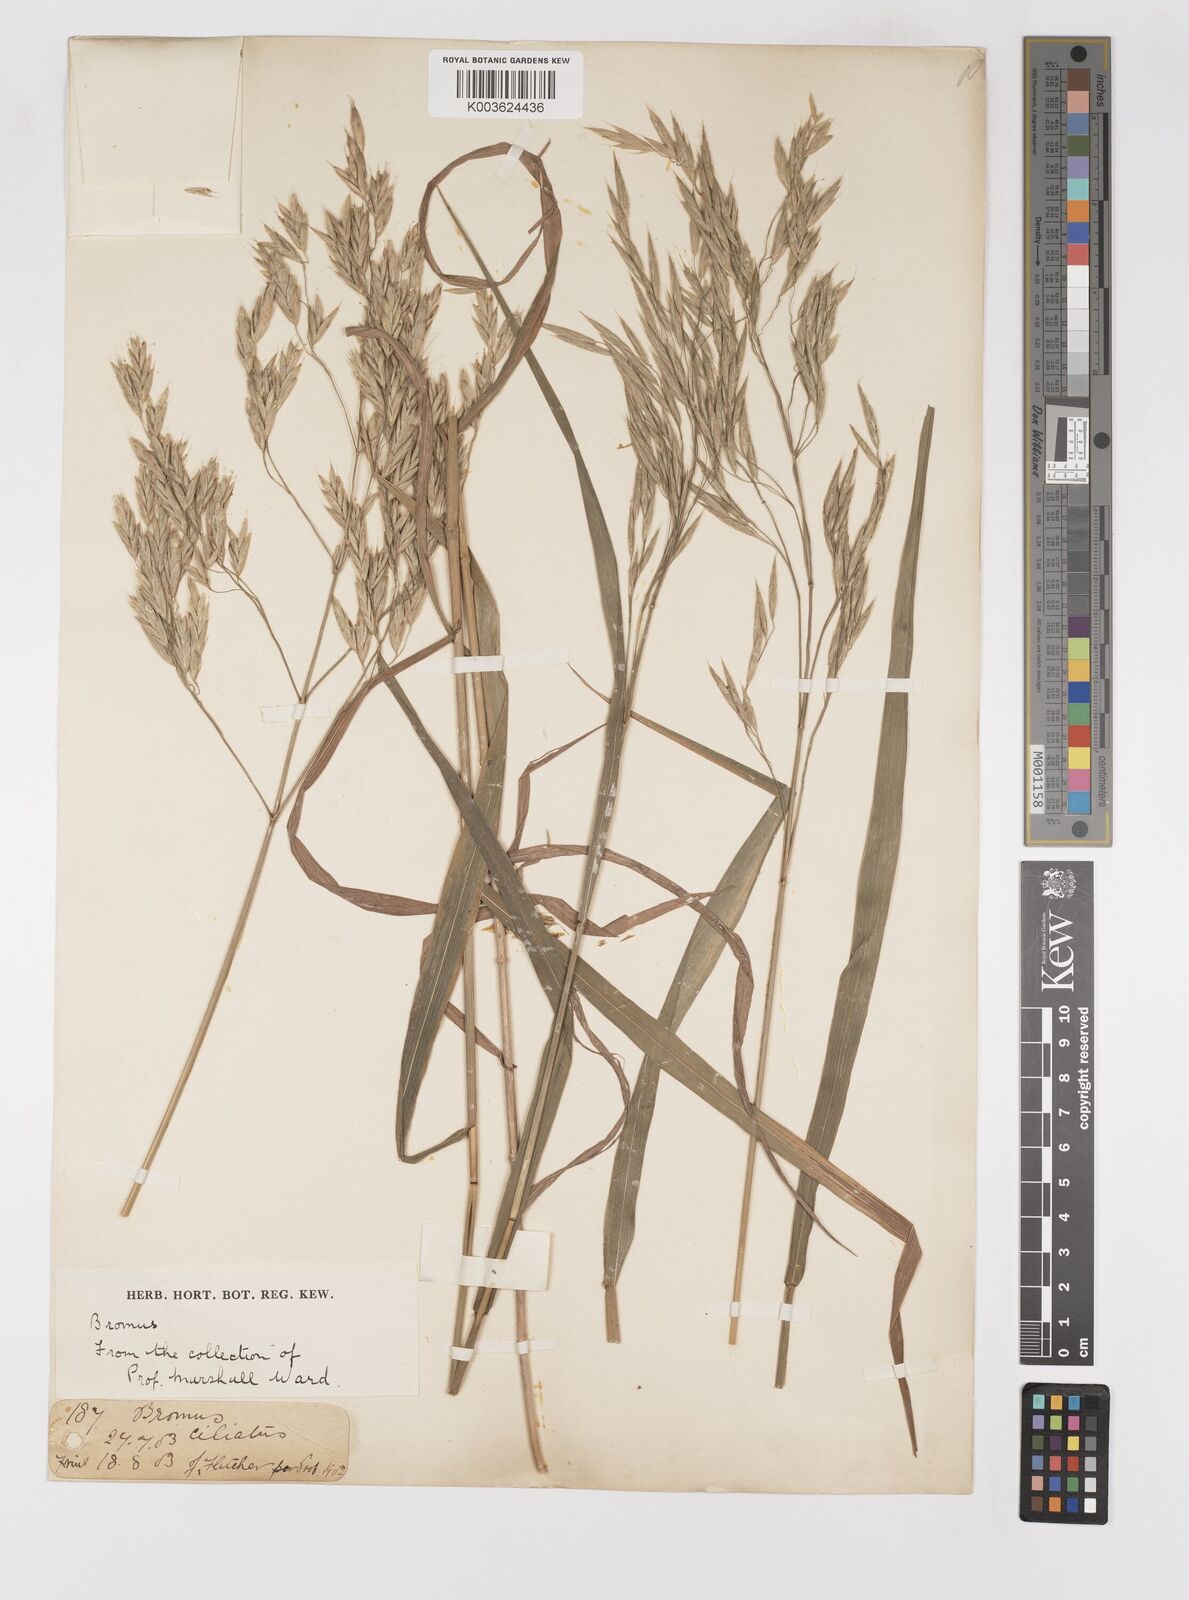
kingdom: Plantae
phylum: Tracheophyta
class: Liliopsida
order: Poales
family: Poaceae
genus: Bromus
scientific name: Bromus
